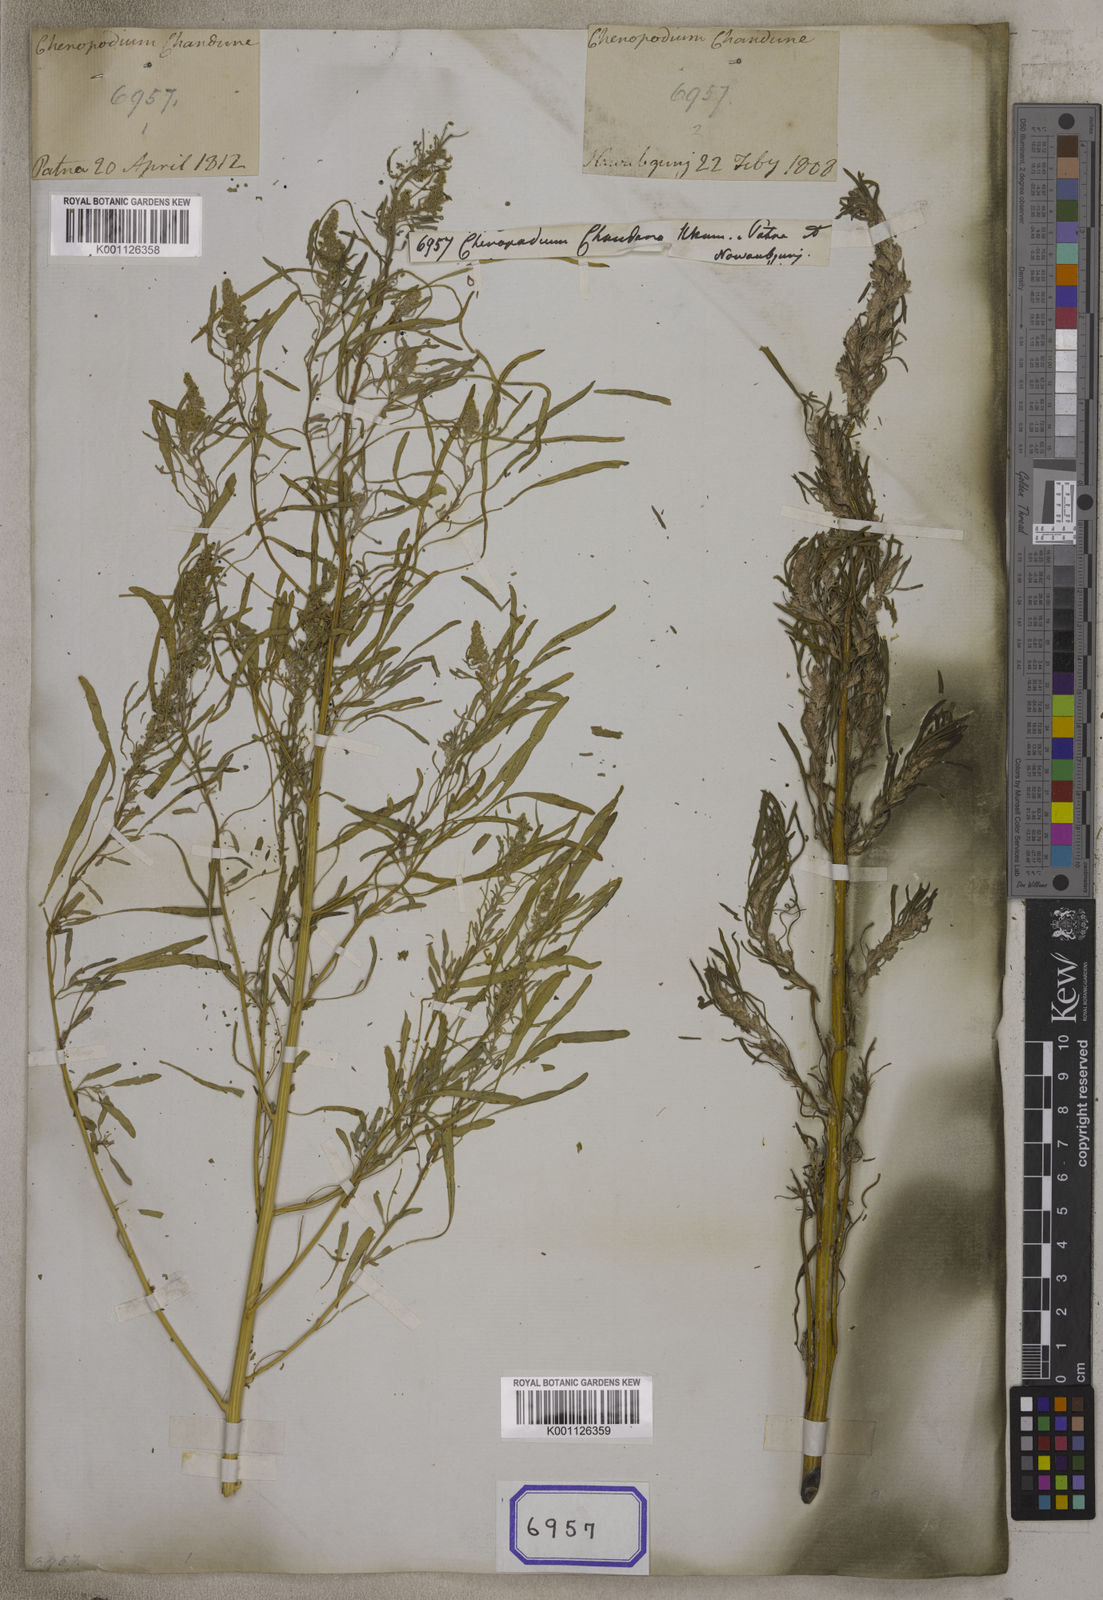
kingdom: Plantae
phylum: Tracheophyta
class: Magnoliopsida
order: Caryophyllales
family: Amaranthaceae
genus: Chenopodium
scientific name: Chenopodium
